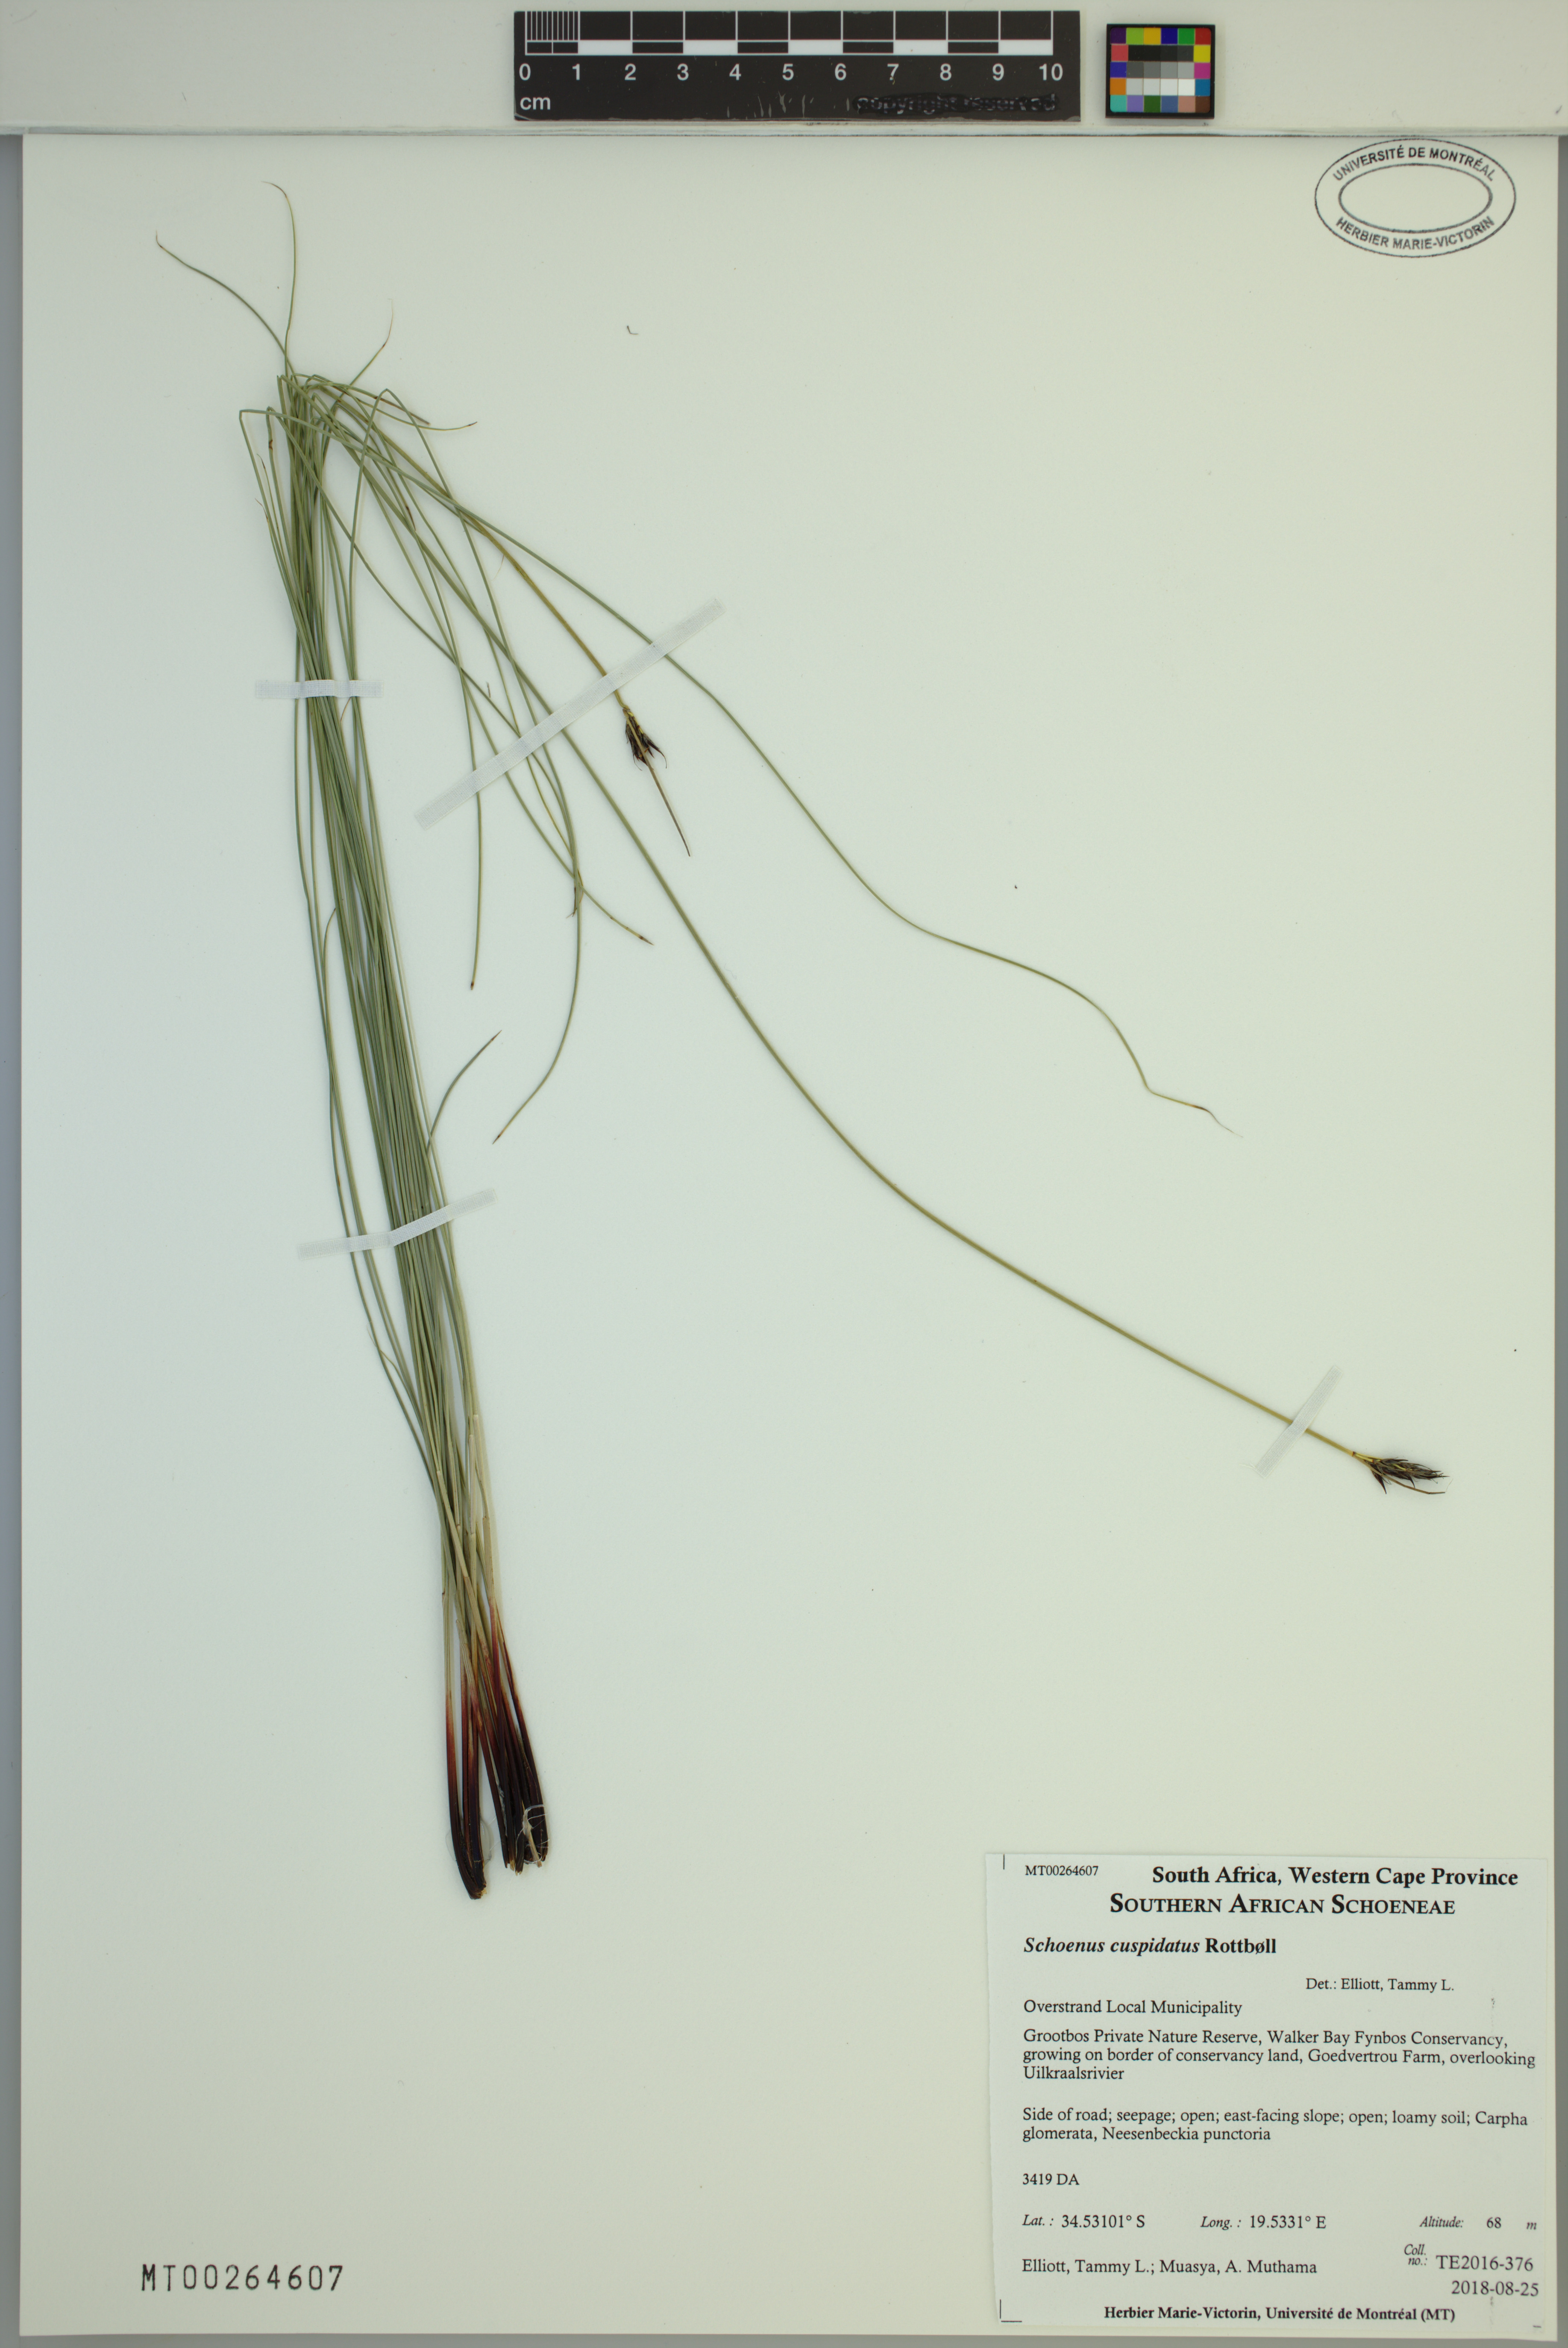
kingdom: Plantae
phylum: Tracheophyta
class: Liliopsida
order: Poales
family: Cyperaceae
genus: Schoenus
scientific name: Schoenus cuspidatus
